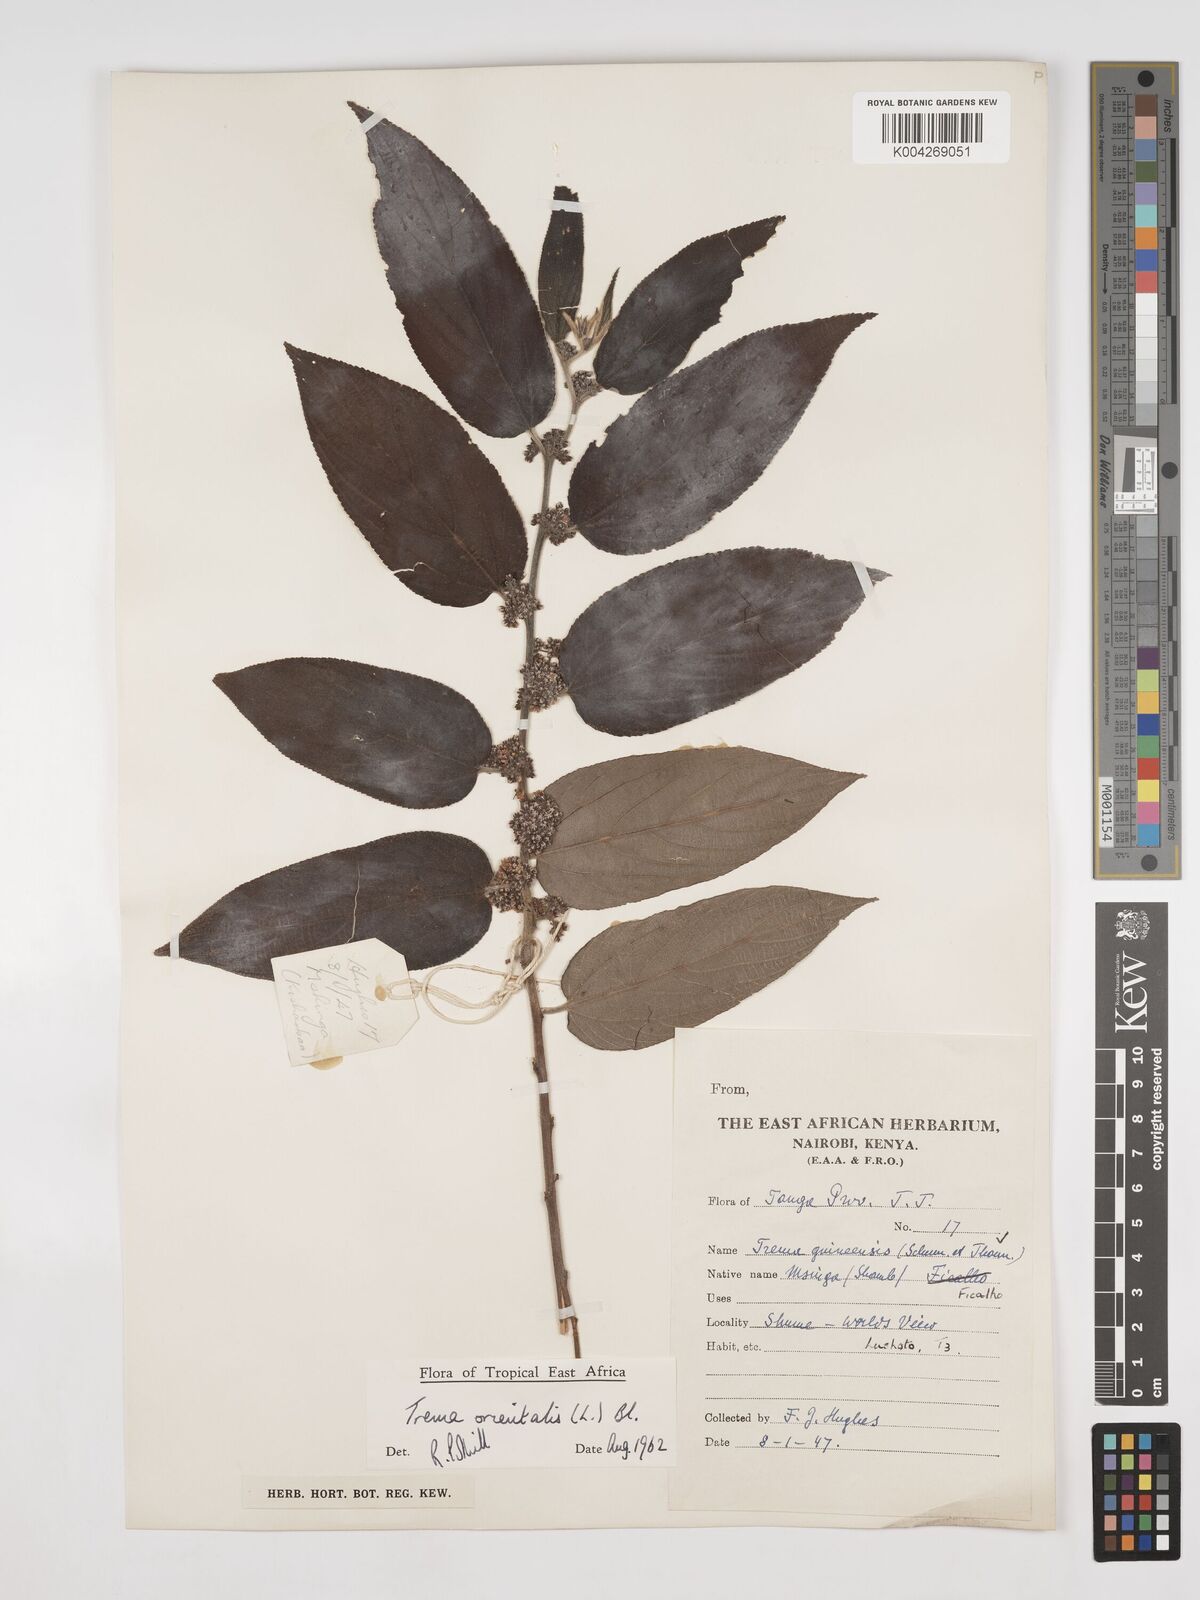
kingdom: Plantae
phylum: Tracheophyta
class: Magnoliopsida
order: Rosales
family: Cannabaceae
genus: Trema
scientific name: Trema orientale
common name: Indian charcoal tree
